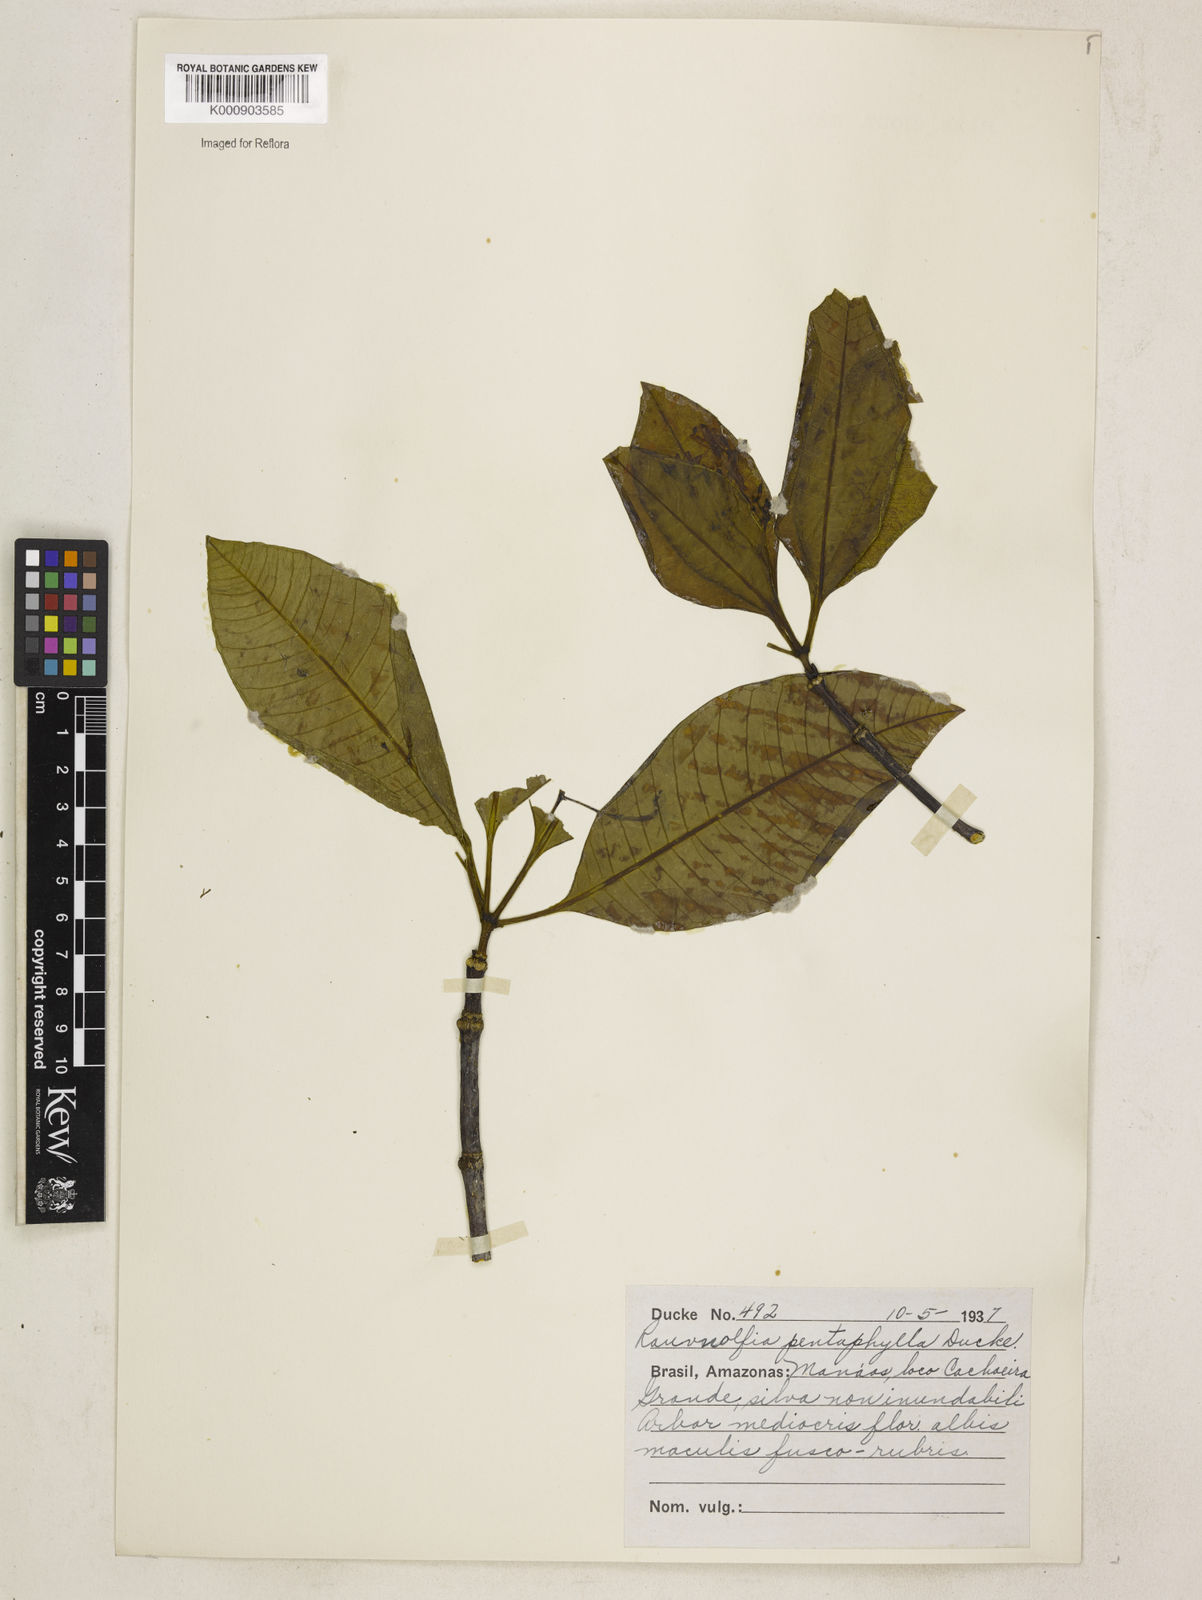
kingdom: Plantae
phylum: Tracheophyta
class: Magnoliopsida
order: Gentianales
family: Apocynaceae
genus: Rauvolfia
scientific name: Rauvolfia pentaphylla
